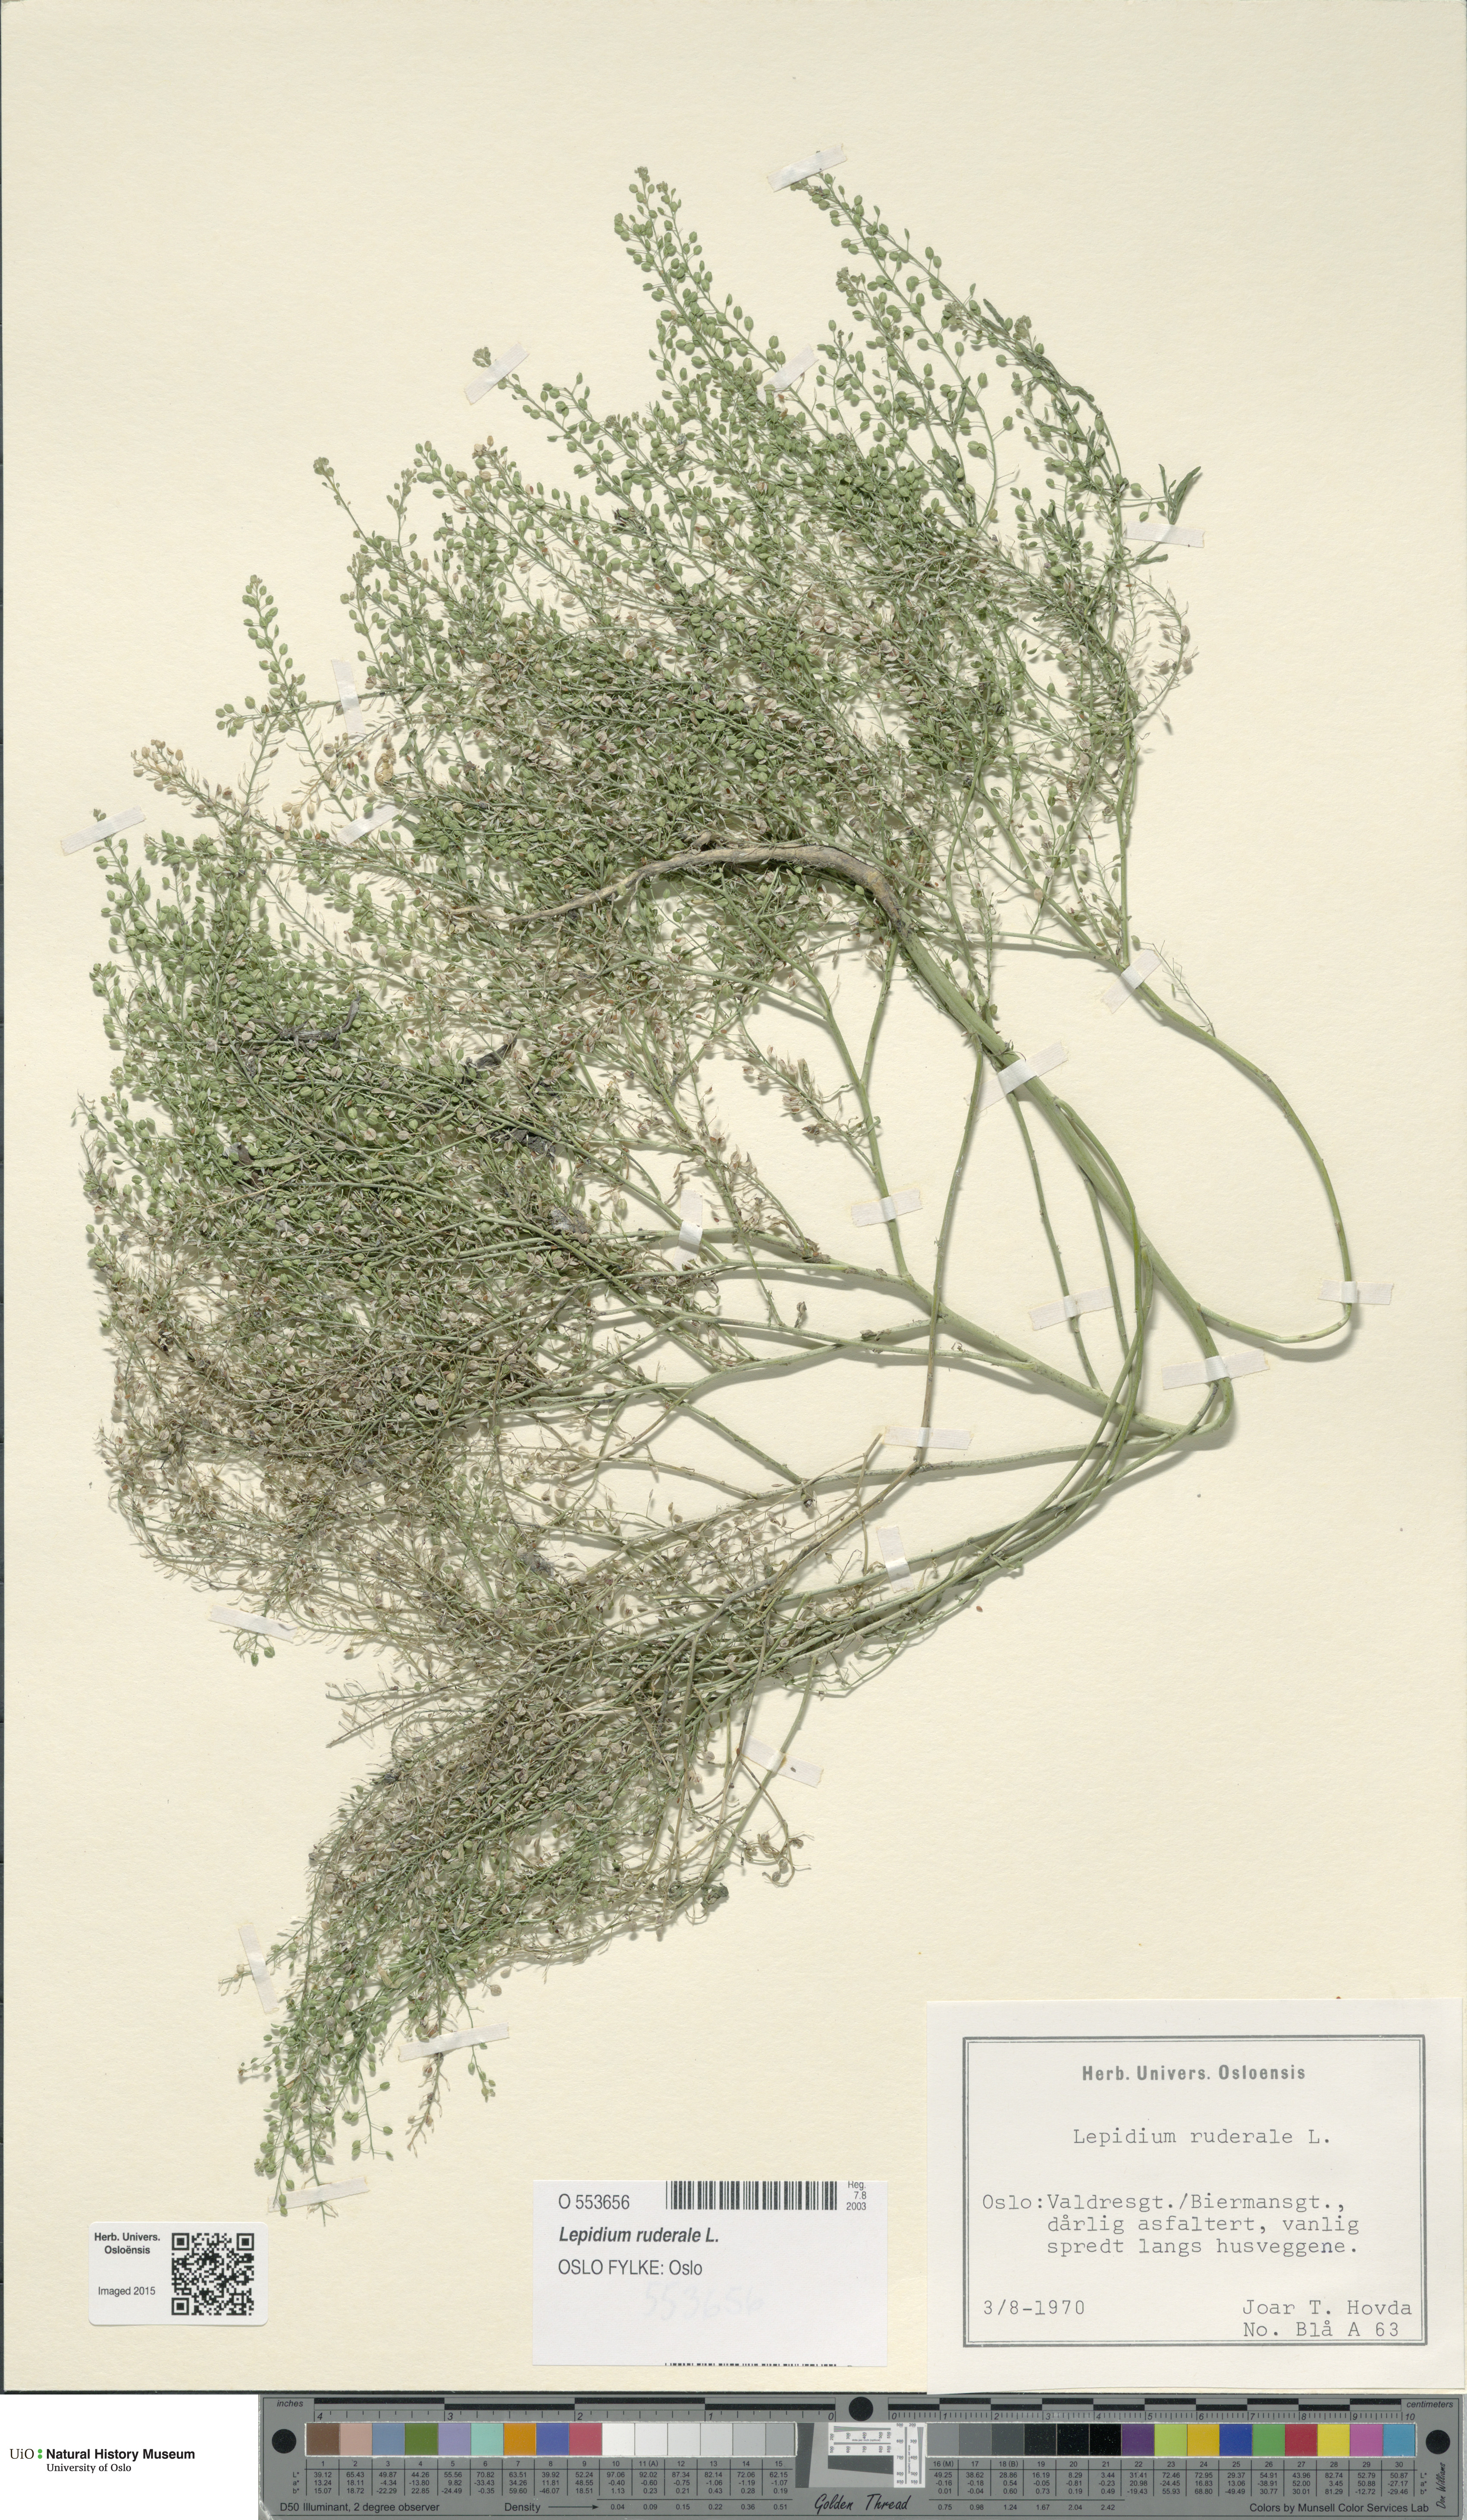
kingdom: Plantae
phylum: Tracheophyta
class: Magnoliopsida
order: Brassicales
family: Brassicaceae
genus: Lepidium
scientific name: Lepidium ruderale
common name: Narrow-leaved pepperwort
